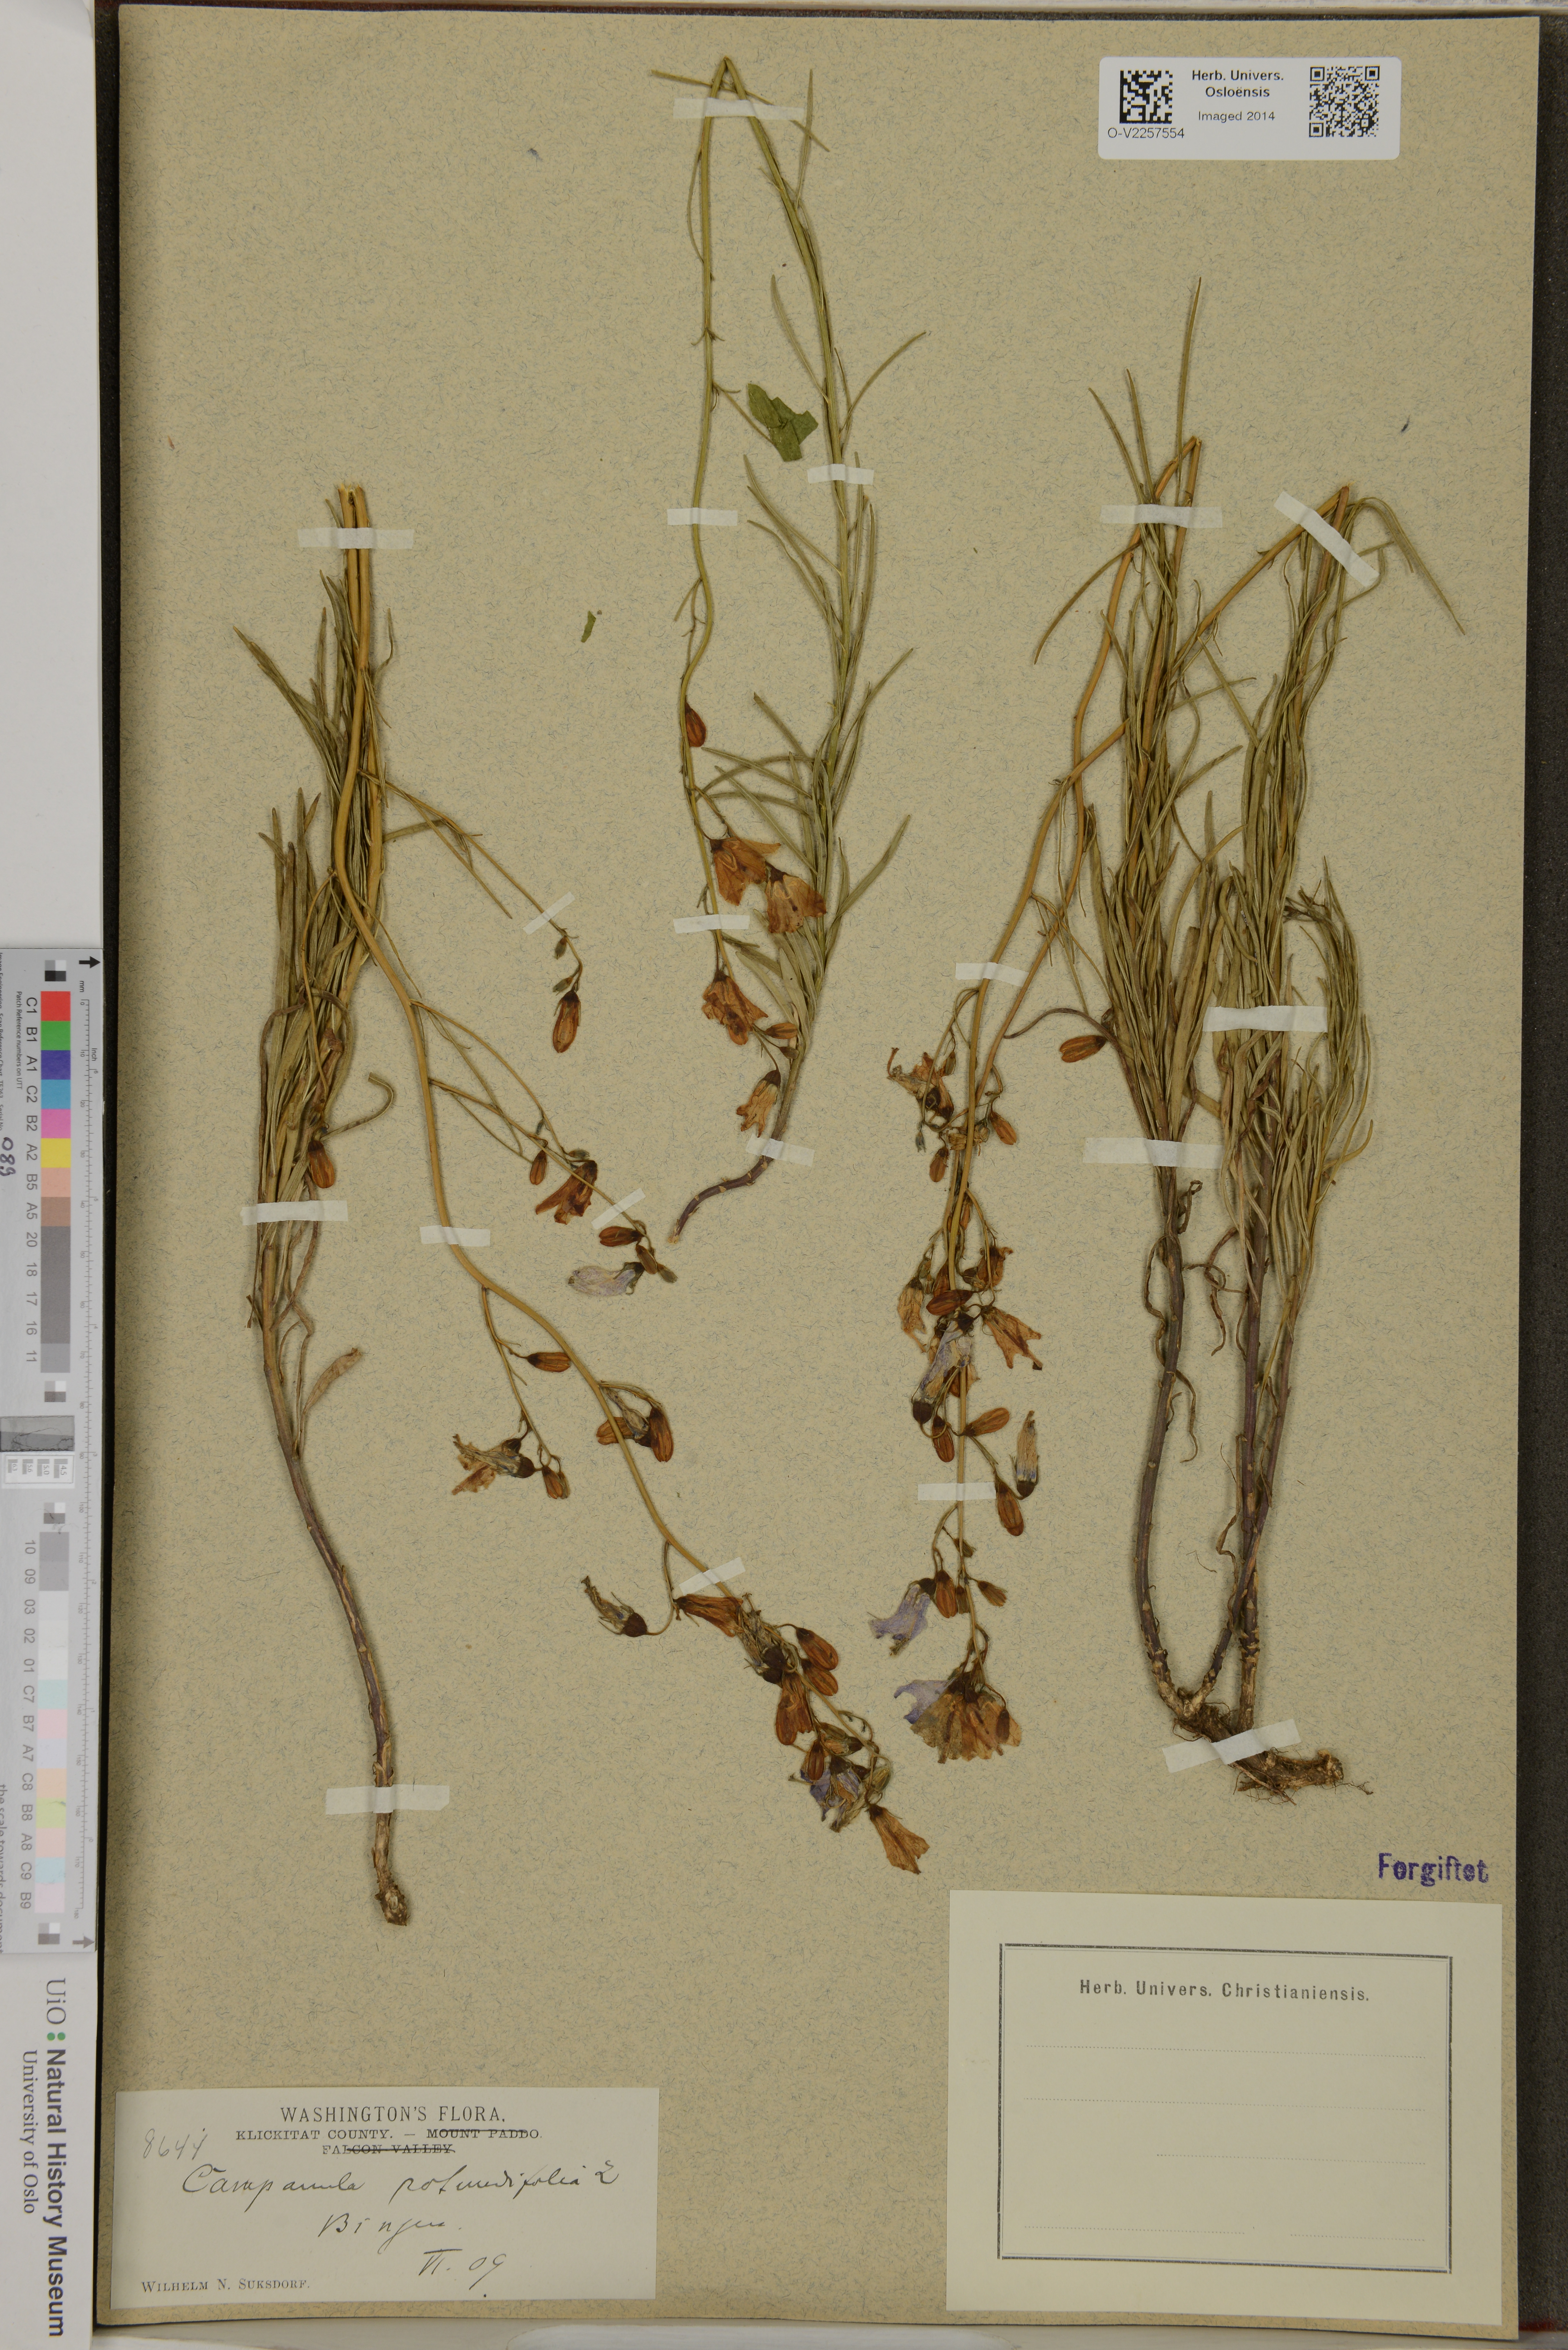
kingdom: Plantae
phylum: Tracheophyta
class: Magnoliopsida
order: Asterales
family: Campanulaceae
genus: Campanula
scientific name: Campanula rotundifolia
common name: Harebell
